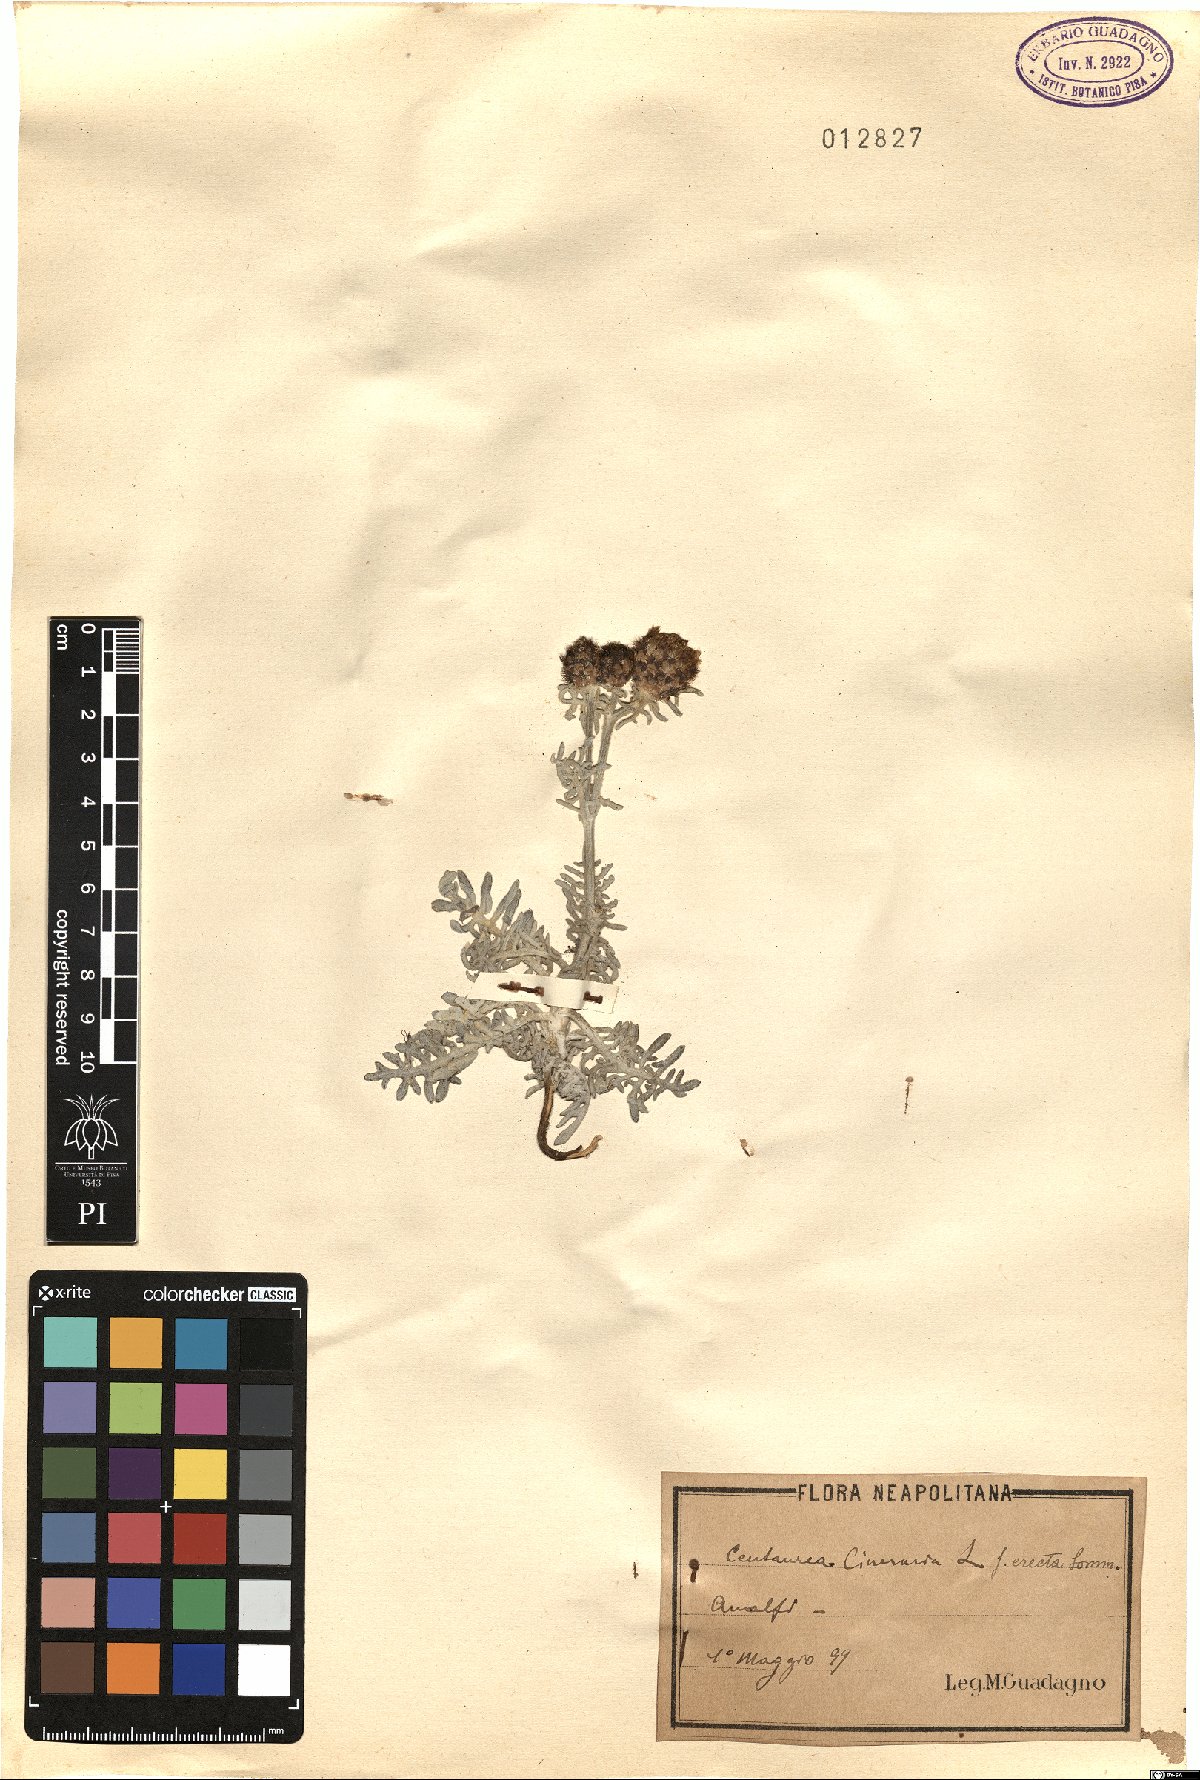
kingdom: Plantae
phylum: Tracheophyta
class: Magnoliopsida
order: Asterales
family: Asteraceae
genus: Centaurea
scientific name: Centaurea cineraria
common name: Dusty miller
